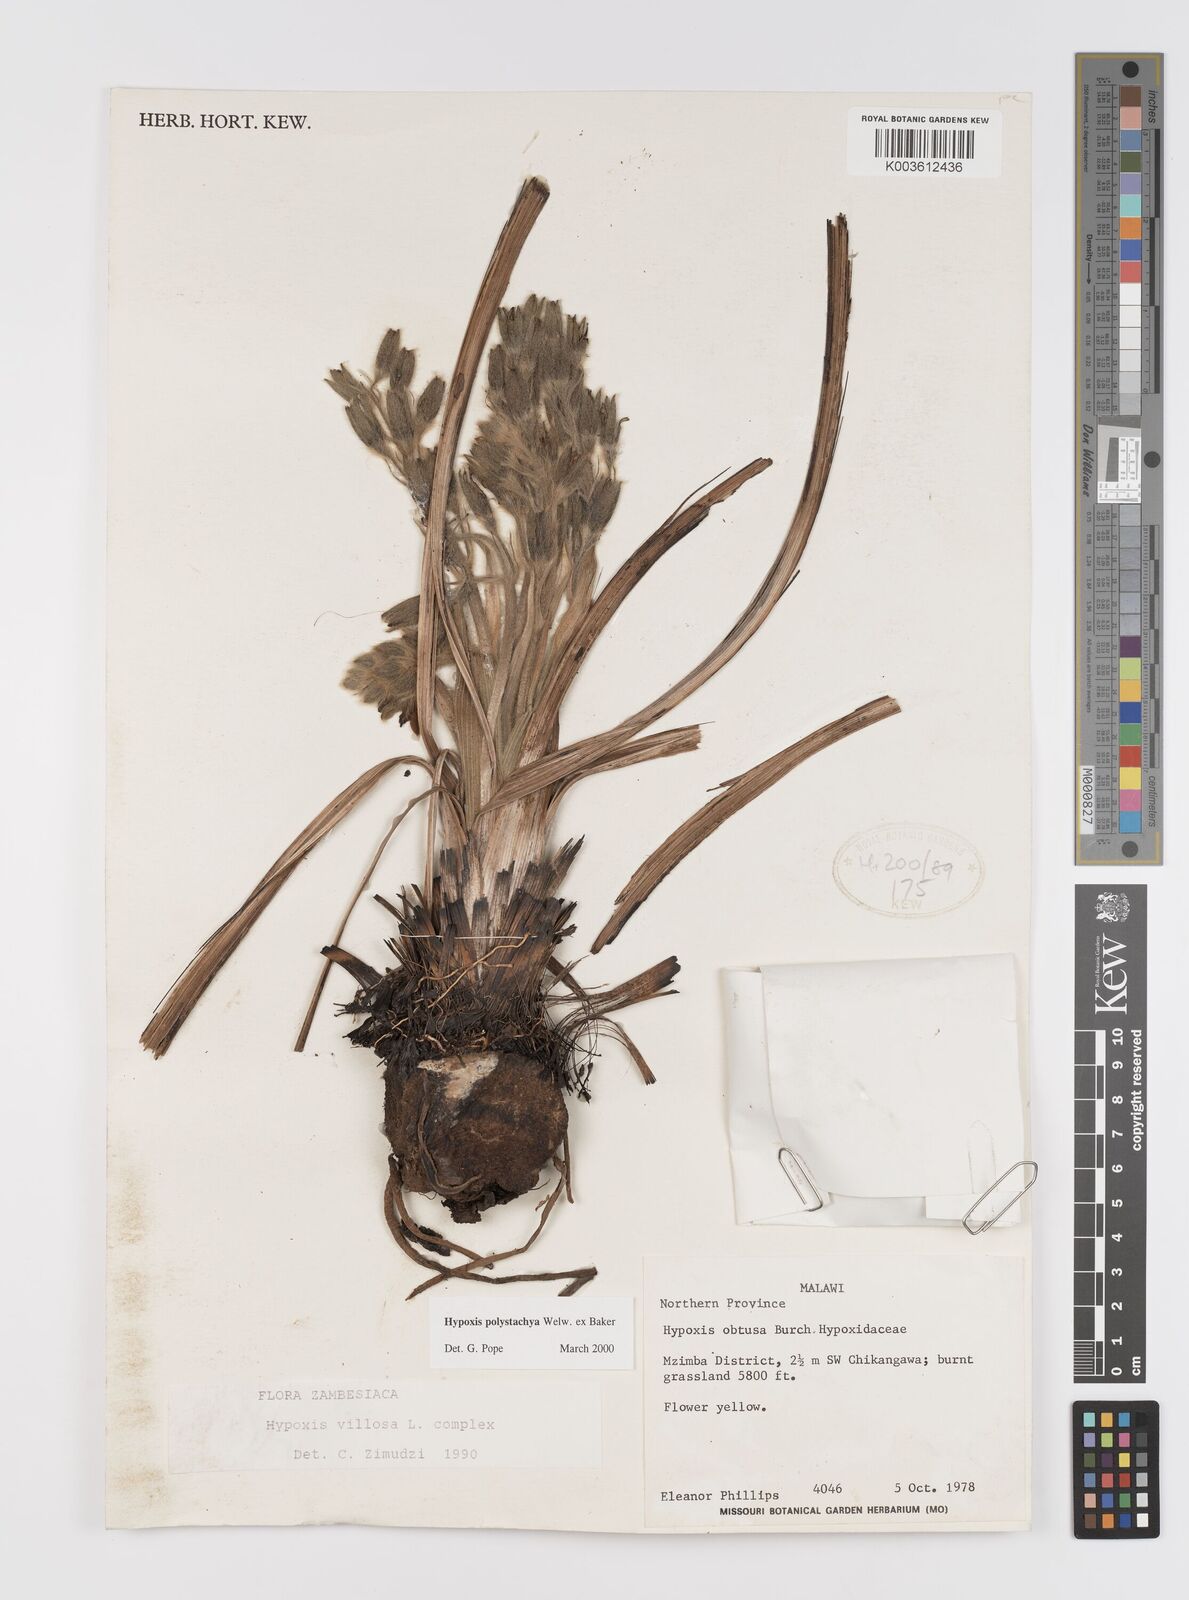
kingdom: Plantae
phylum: Tracheophyta
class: Liliopsida
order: Asparagales
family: Hypoxidaceae
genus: Hypoxis
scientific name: Hypoxis polystachya
